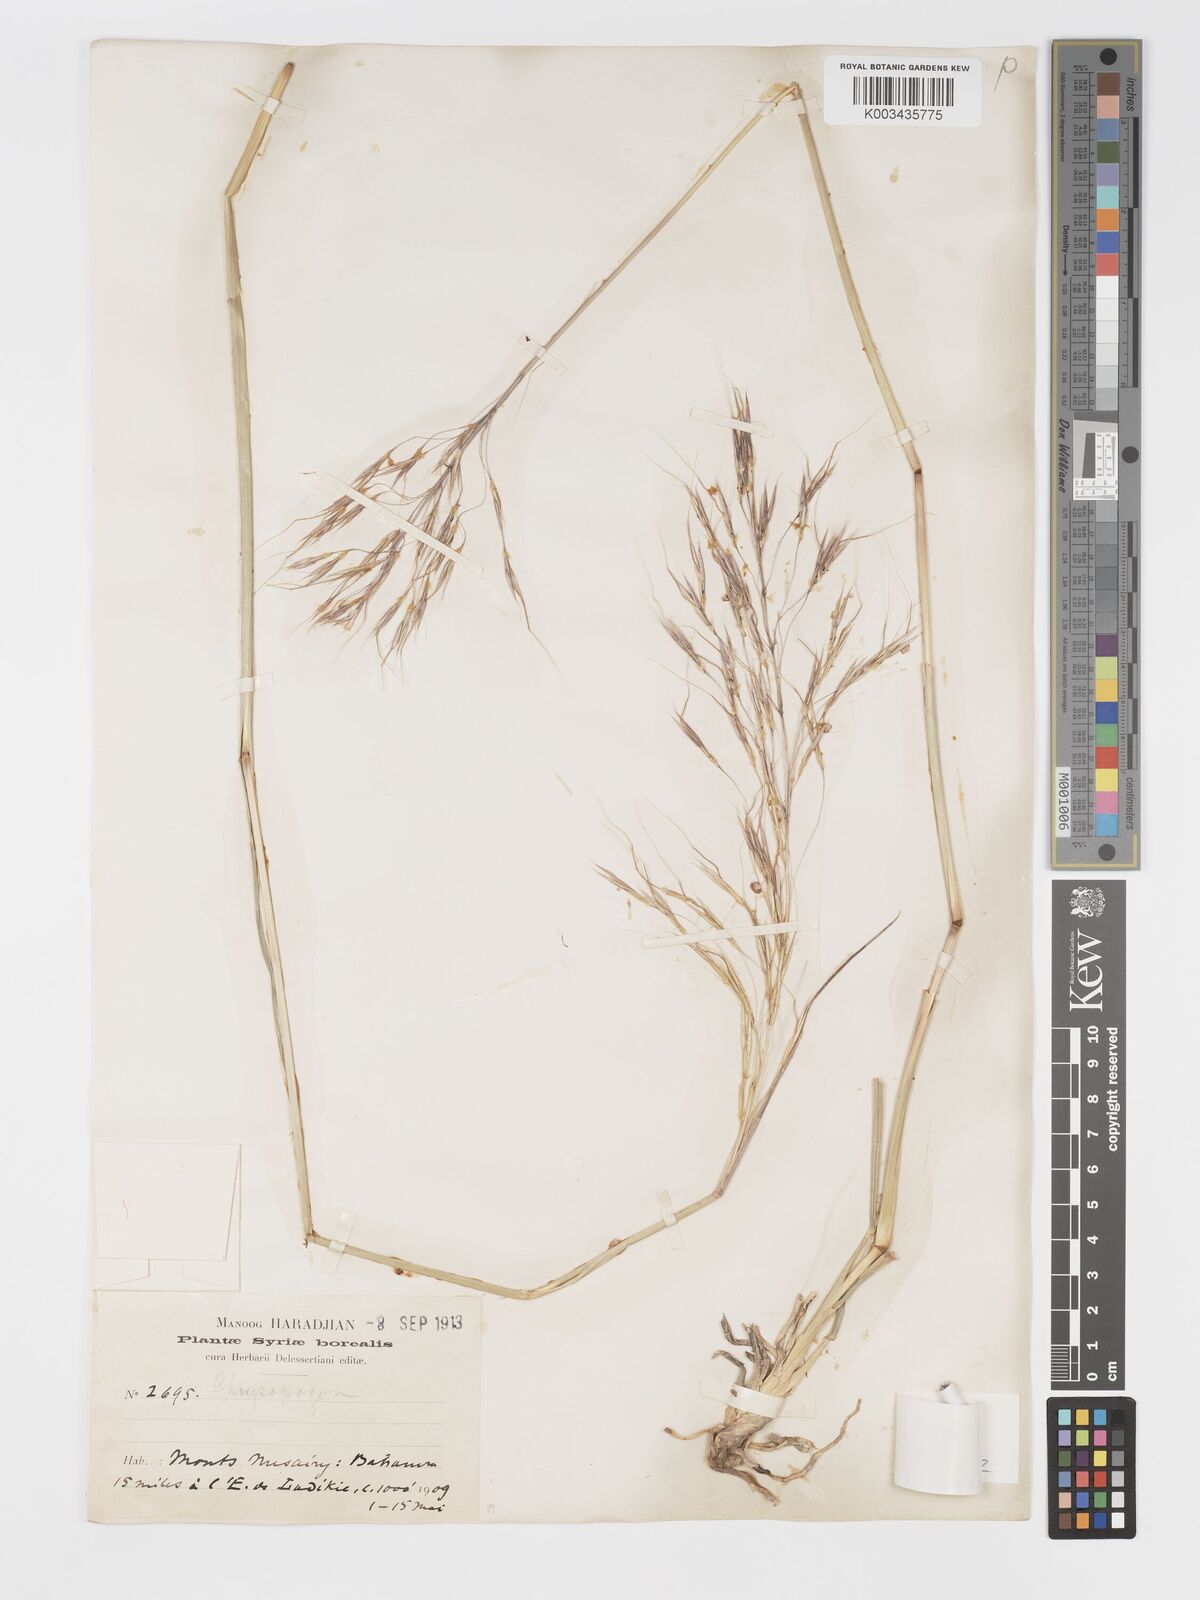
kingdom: Plantae
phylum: Tracheophyta
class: Liliopsida
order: Poales
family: Poaceae
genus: Chrysopogon
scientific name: Chrysopogon gryllus
